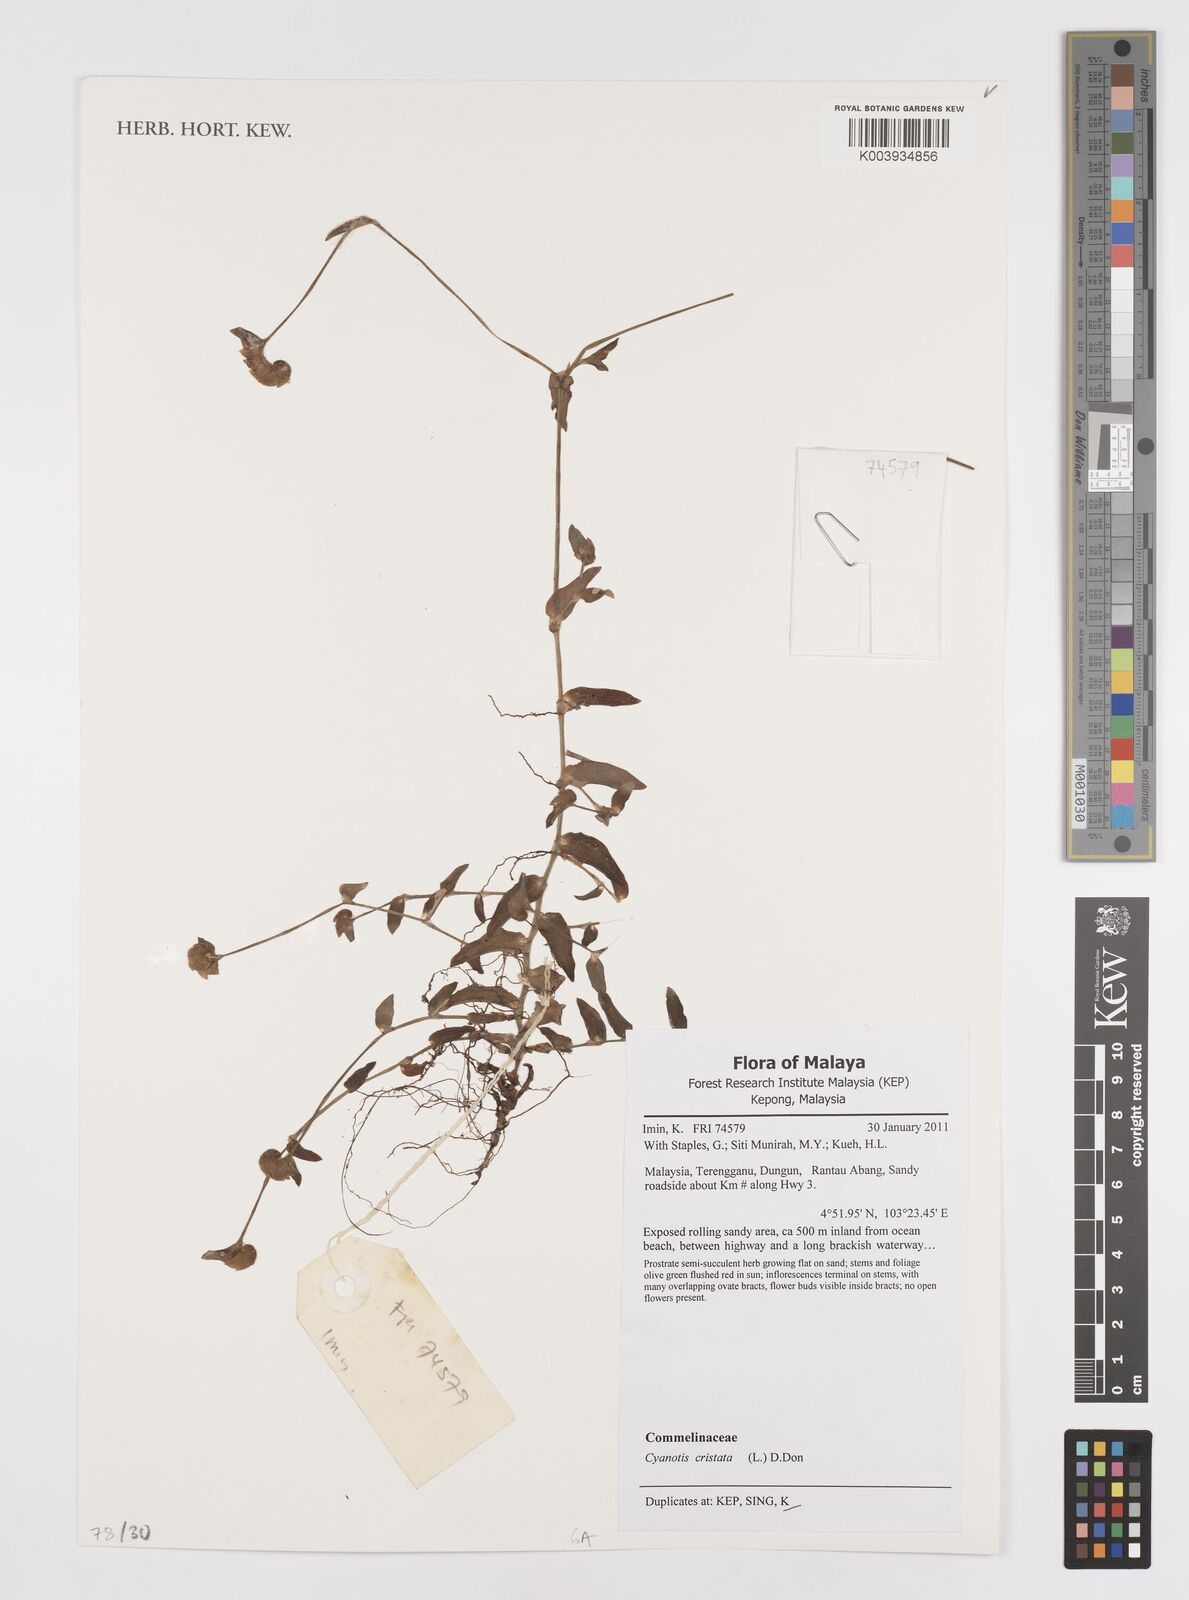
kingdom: Plantae
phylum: Tracheophyta
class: Liliopsida
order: Commelinales
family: Commelinaceae
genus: Cyanotis
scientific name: Cyanotis cristata
